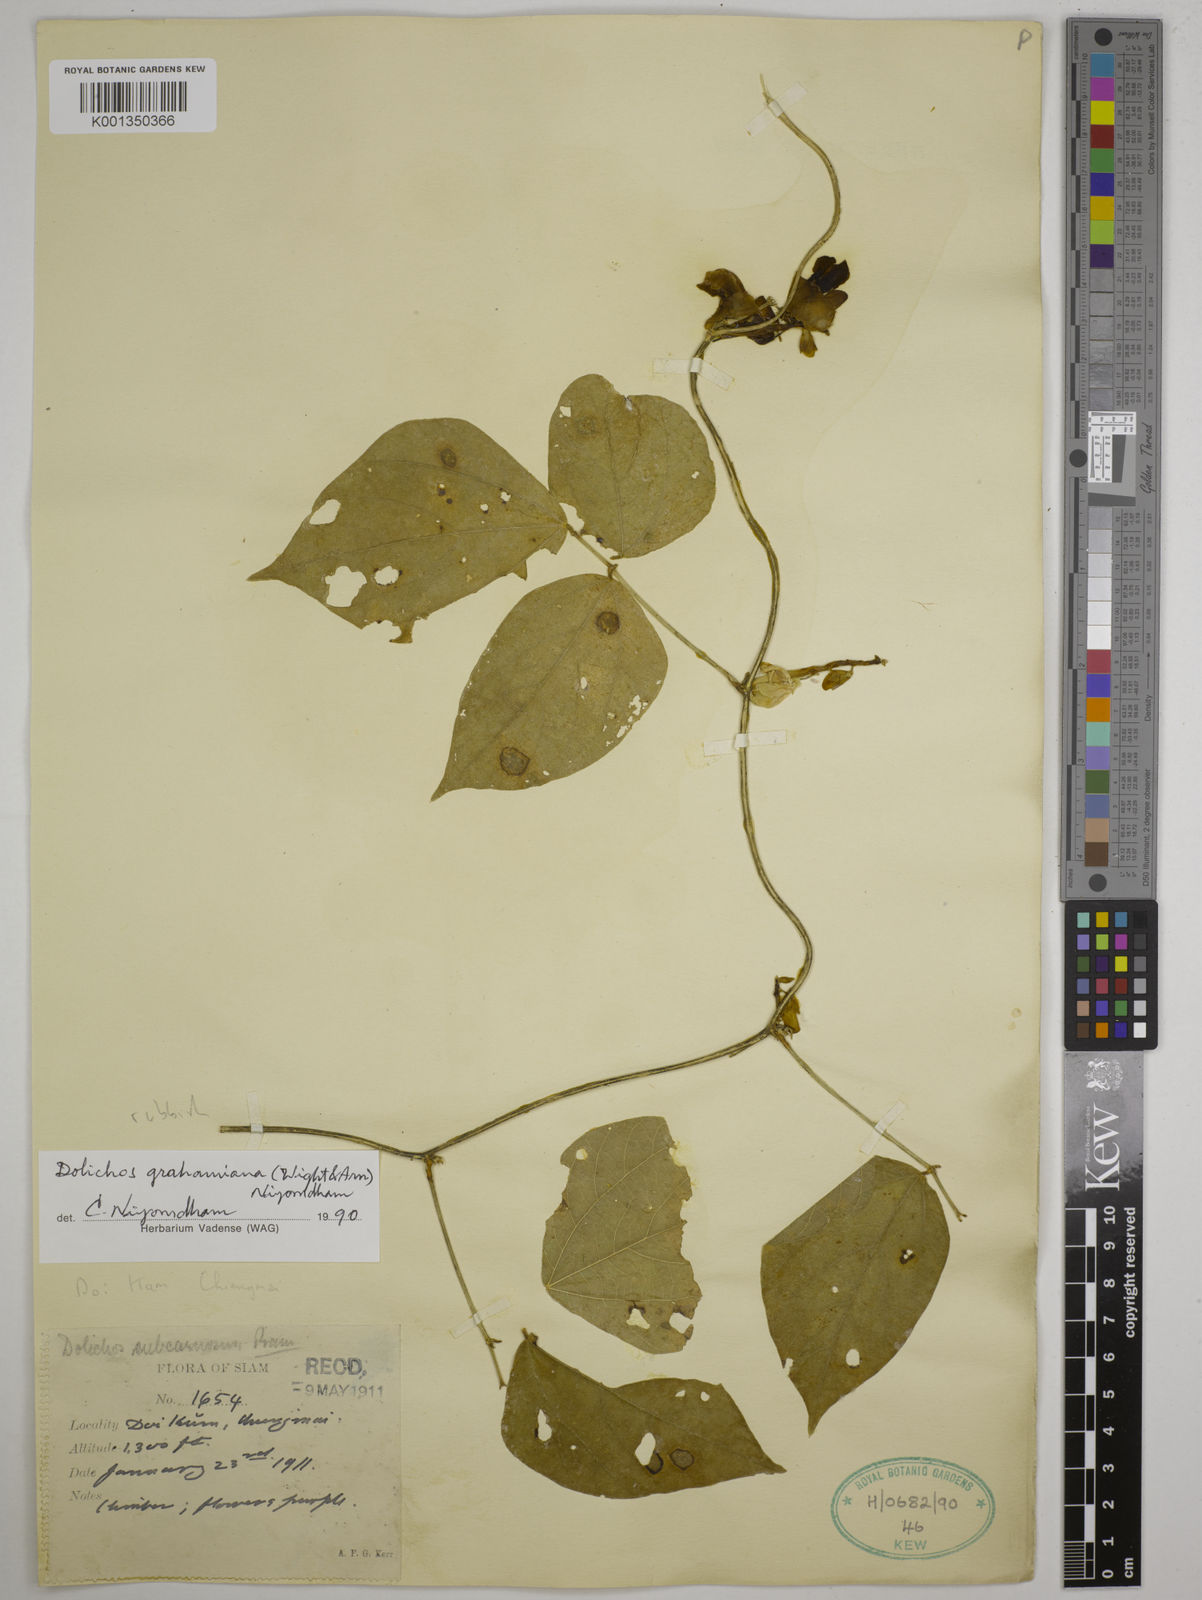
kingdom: Plantae
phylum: Tracheophyta
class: Magnoliopsida
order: Fabales
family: Fabaceae
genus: Wajira
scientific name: Wajira grahamiana
